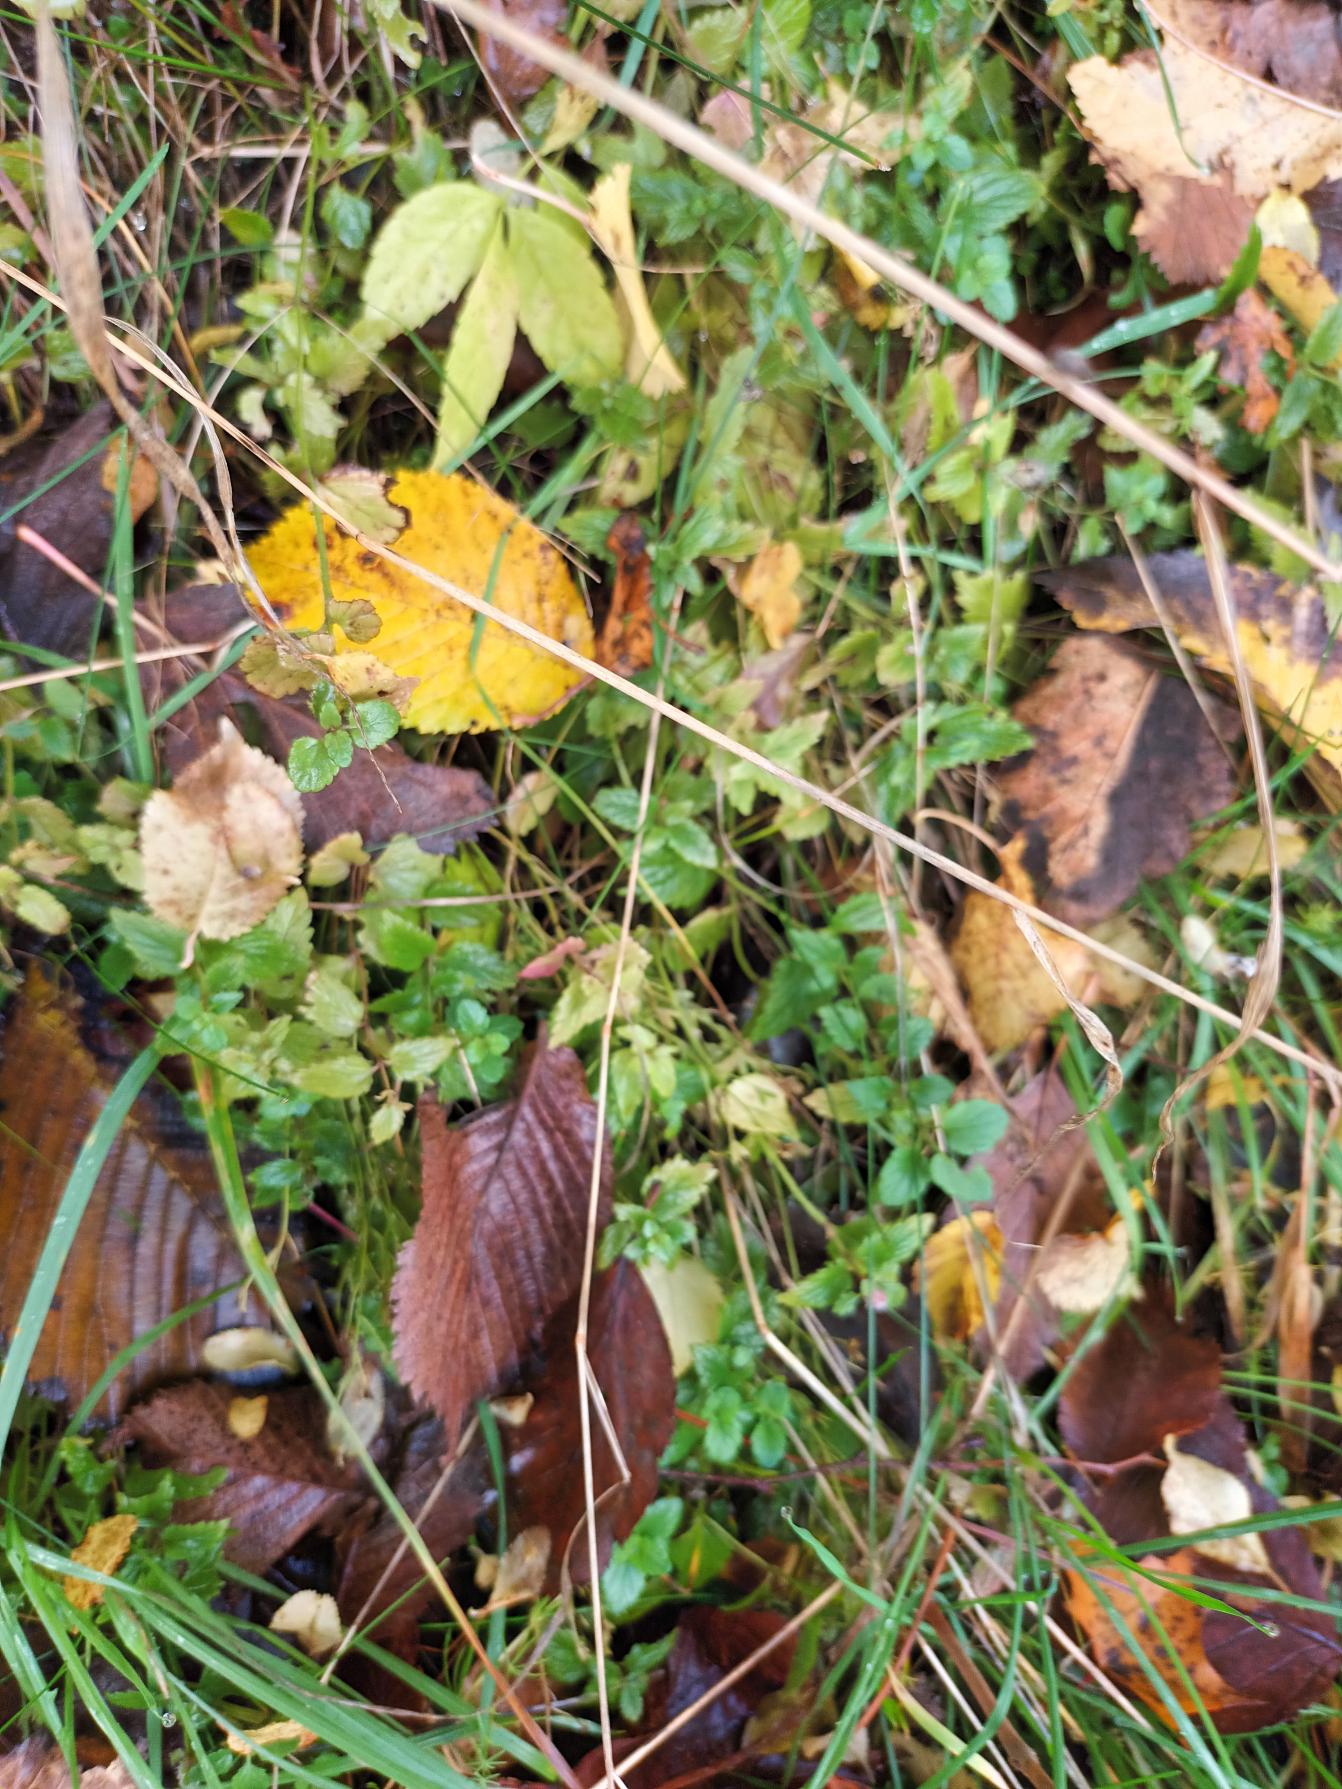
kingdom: Plantae
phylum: Tracheophyta
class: Magnoliopsida
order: Lamiales
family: Plantaginaceae
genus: Veronica
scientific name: Veronica chamaedrys
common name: Tveskægget ærenpris
